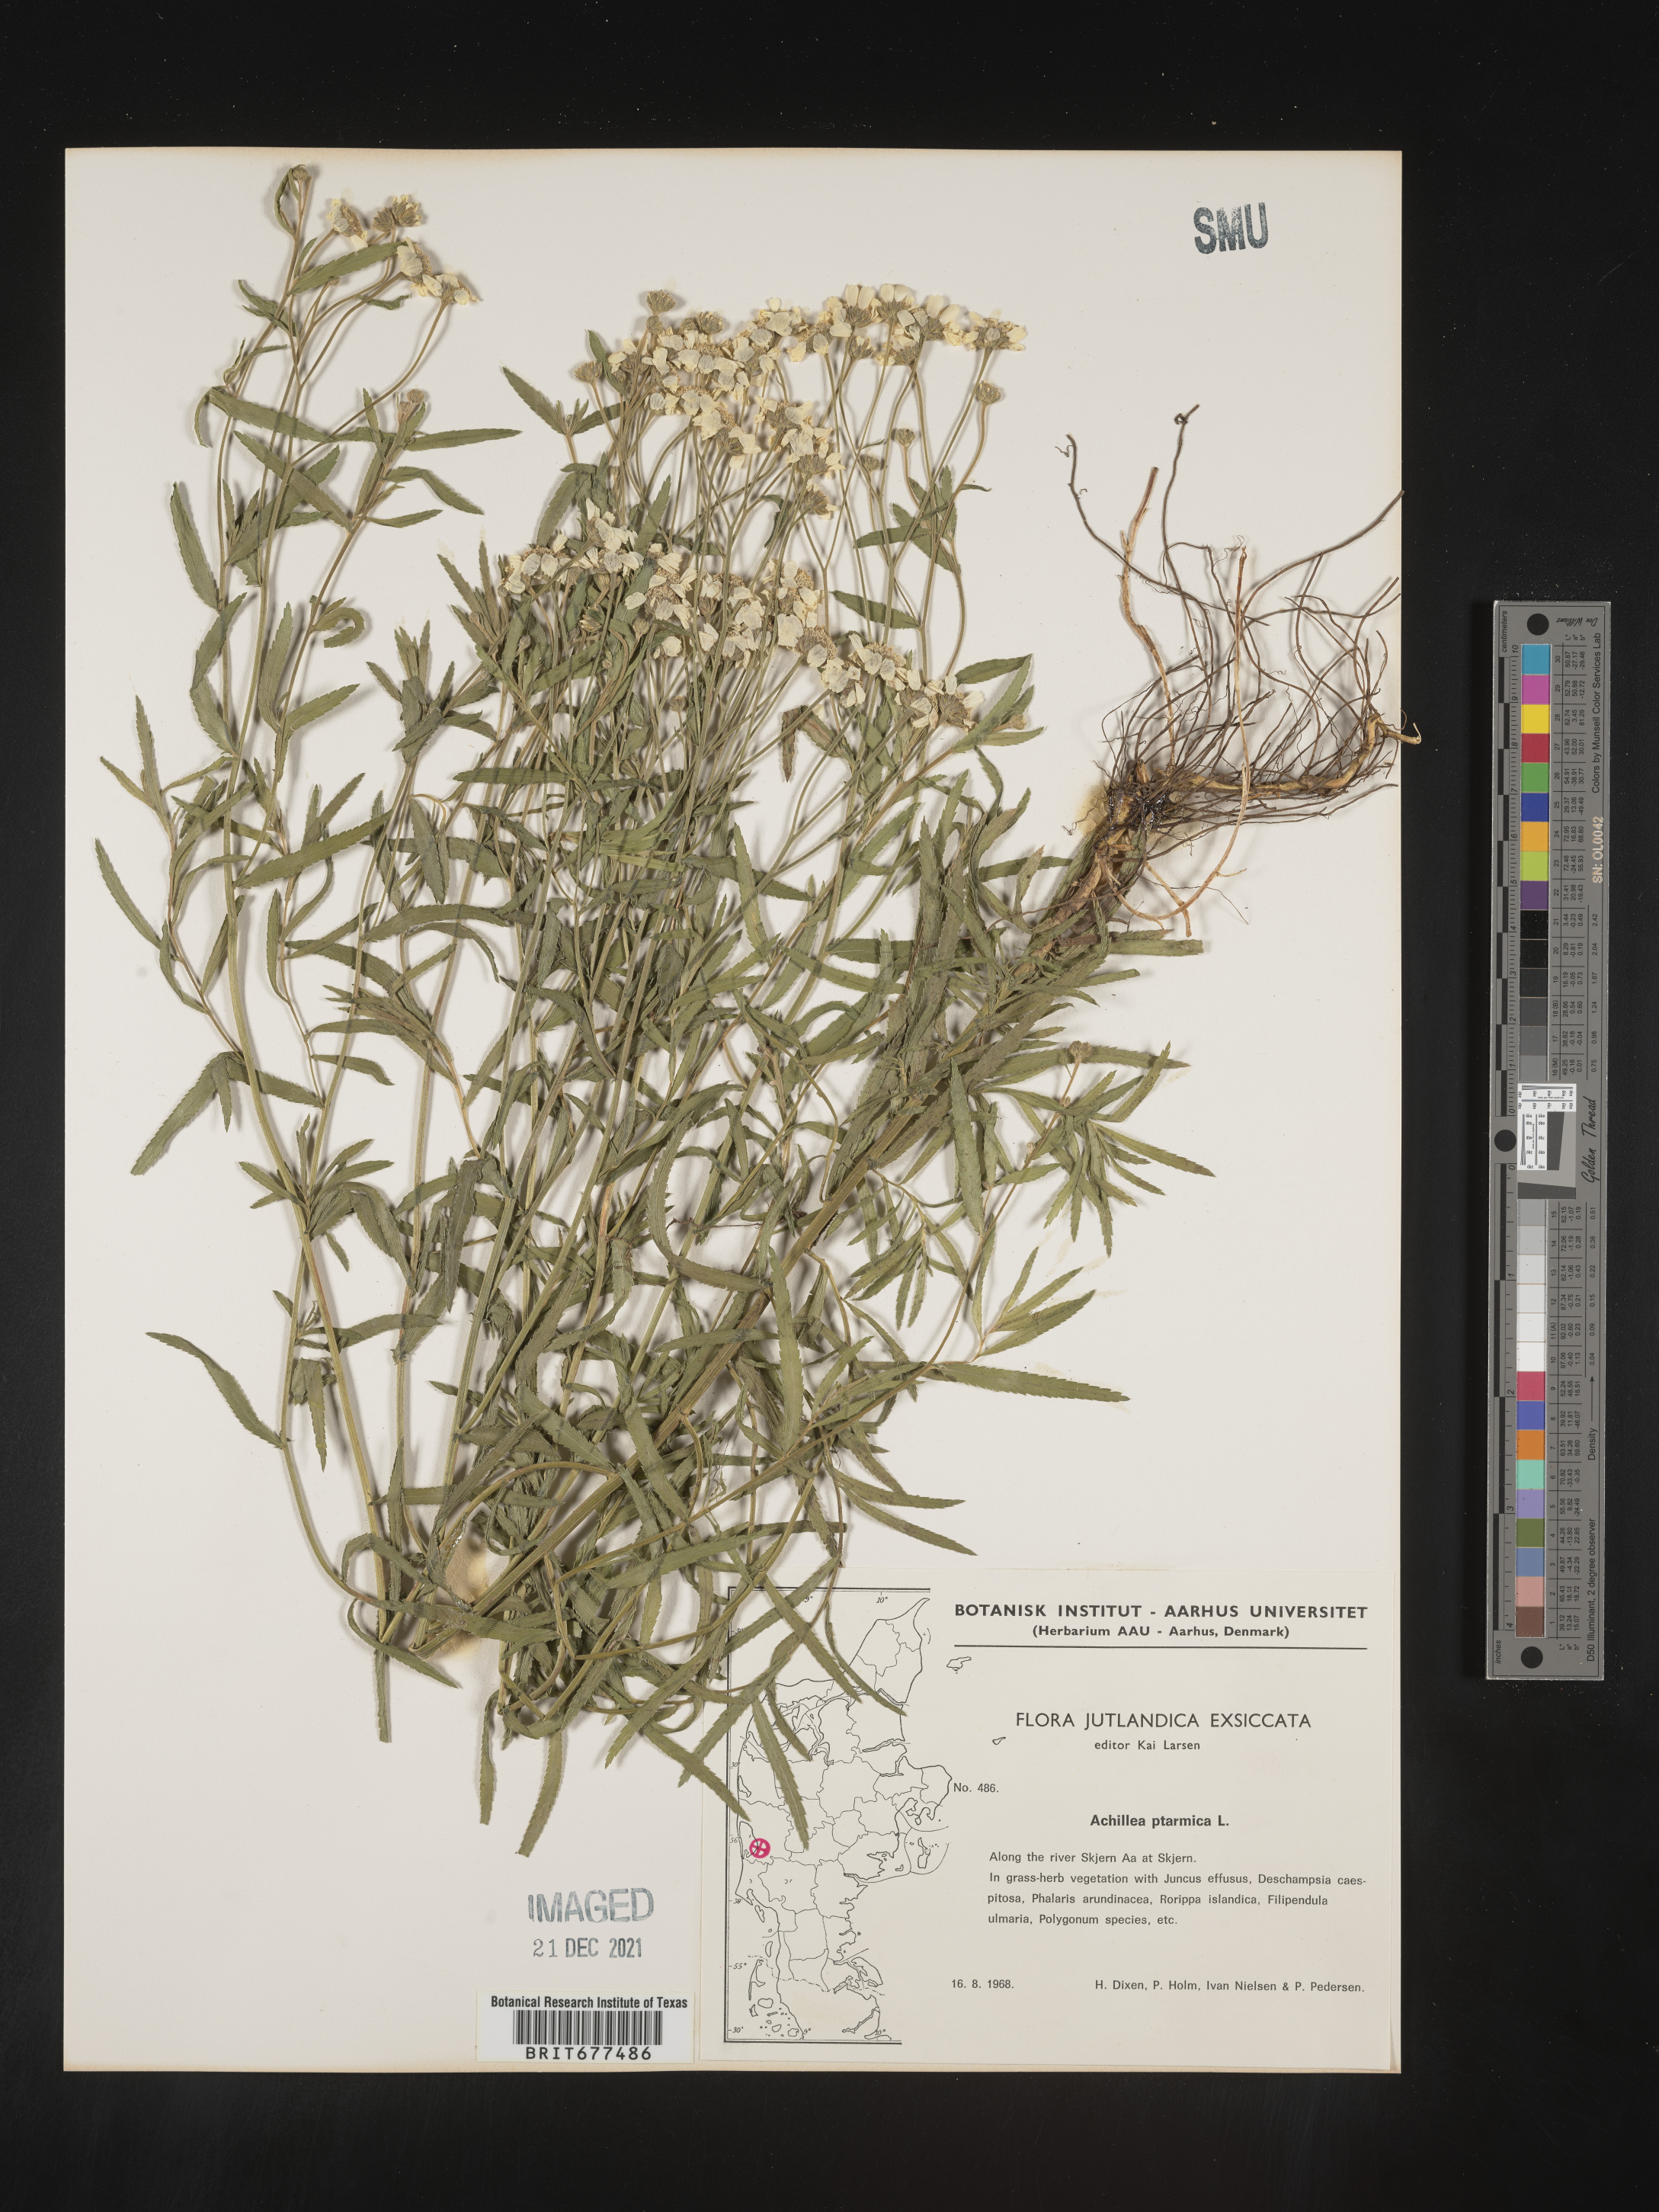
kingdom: Plantae
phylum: Tracheophyta
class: Magnoliopsida
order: Asterales
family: Asteraceae
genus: Achillea
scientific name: Achillea ptarmica
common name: Sneezeweed
